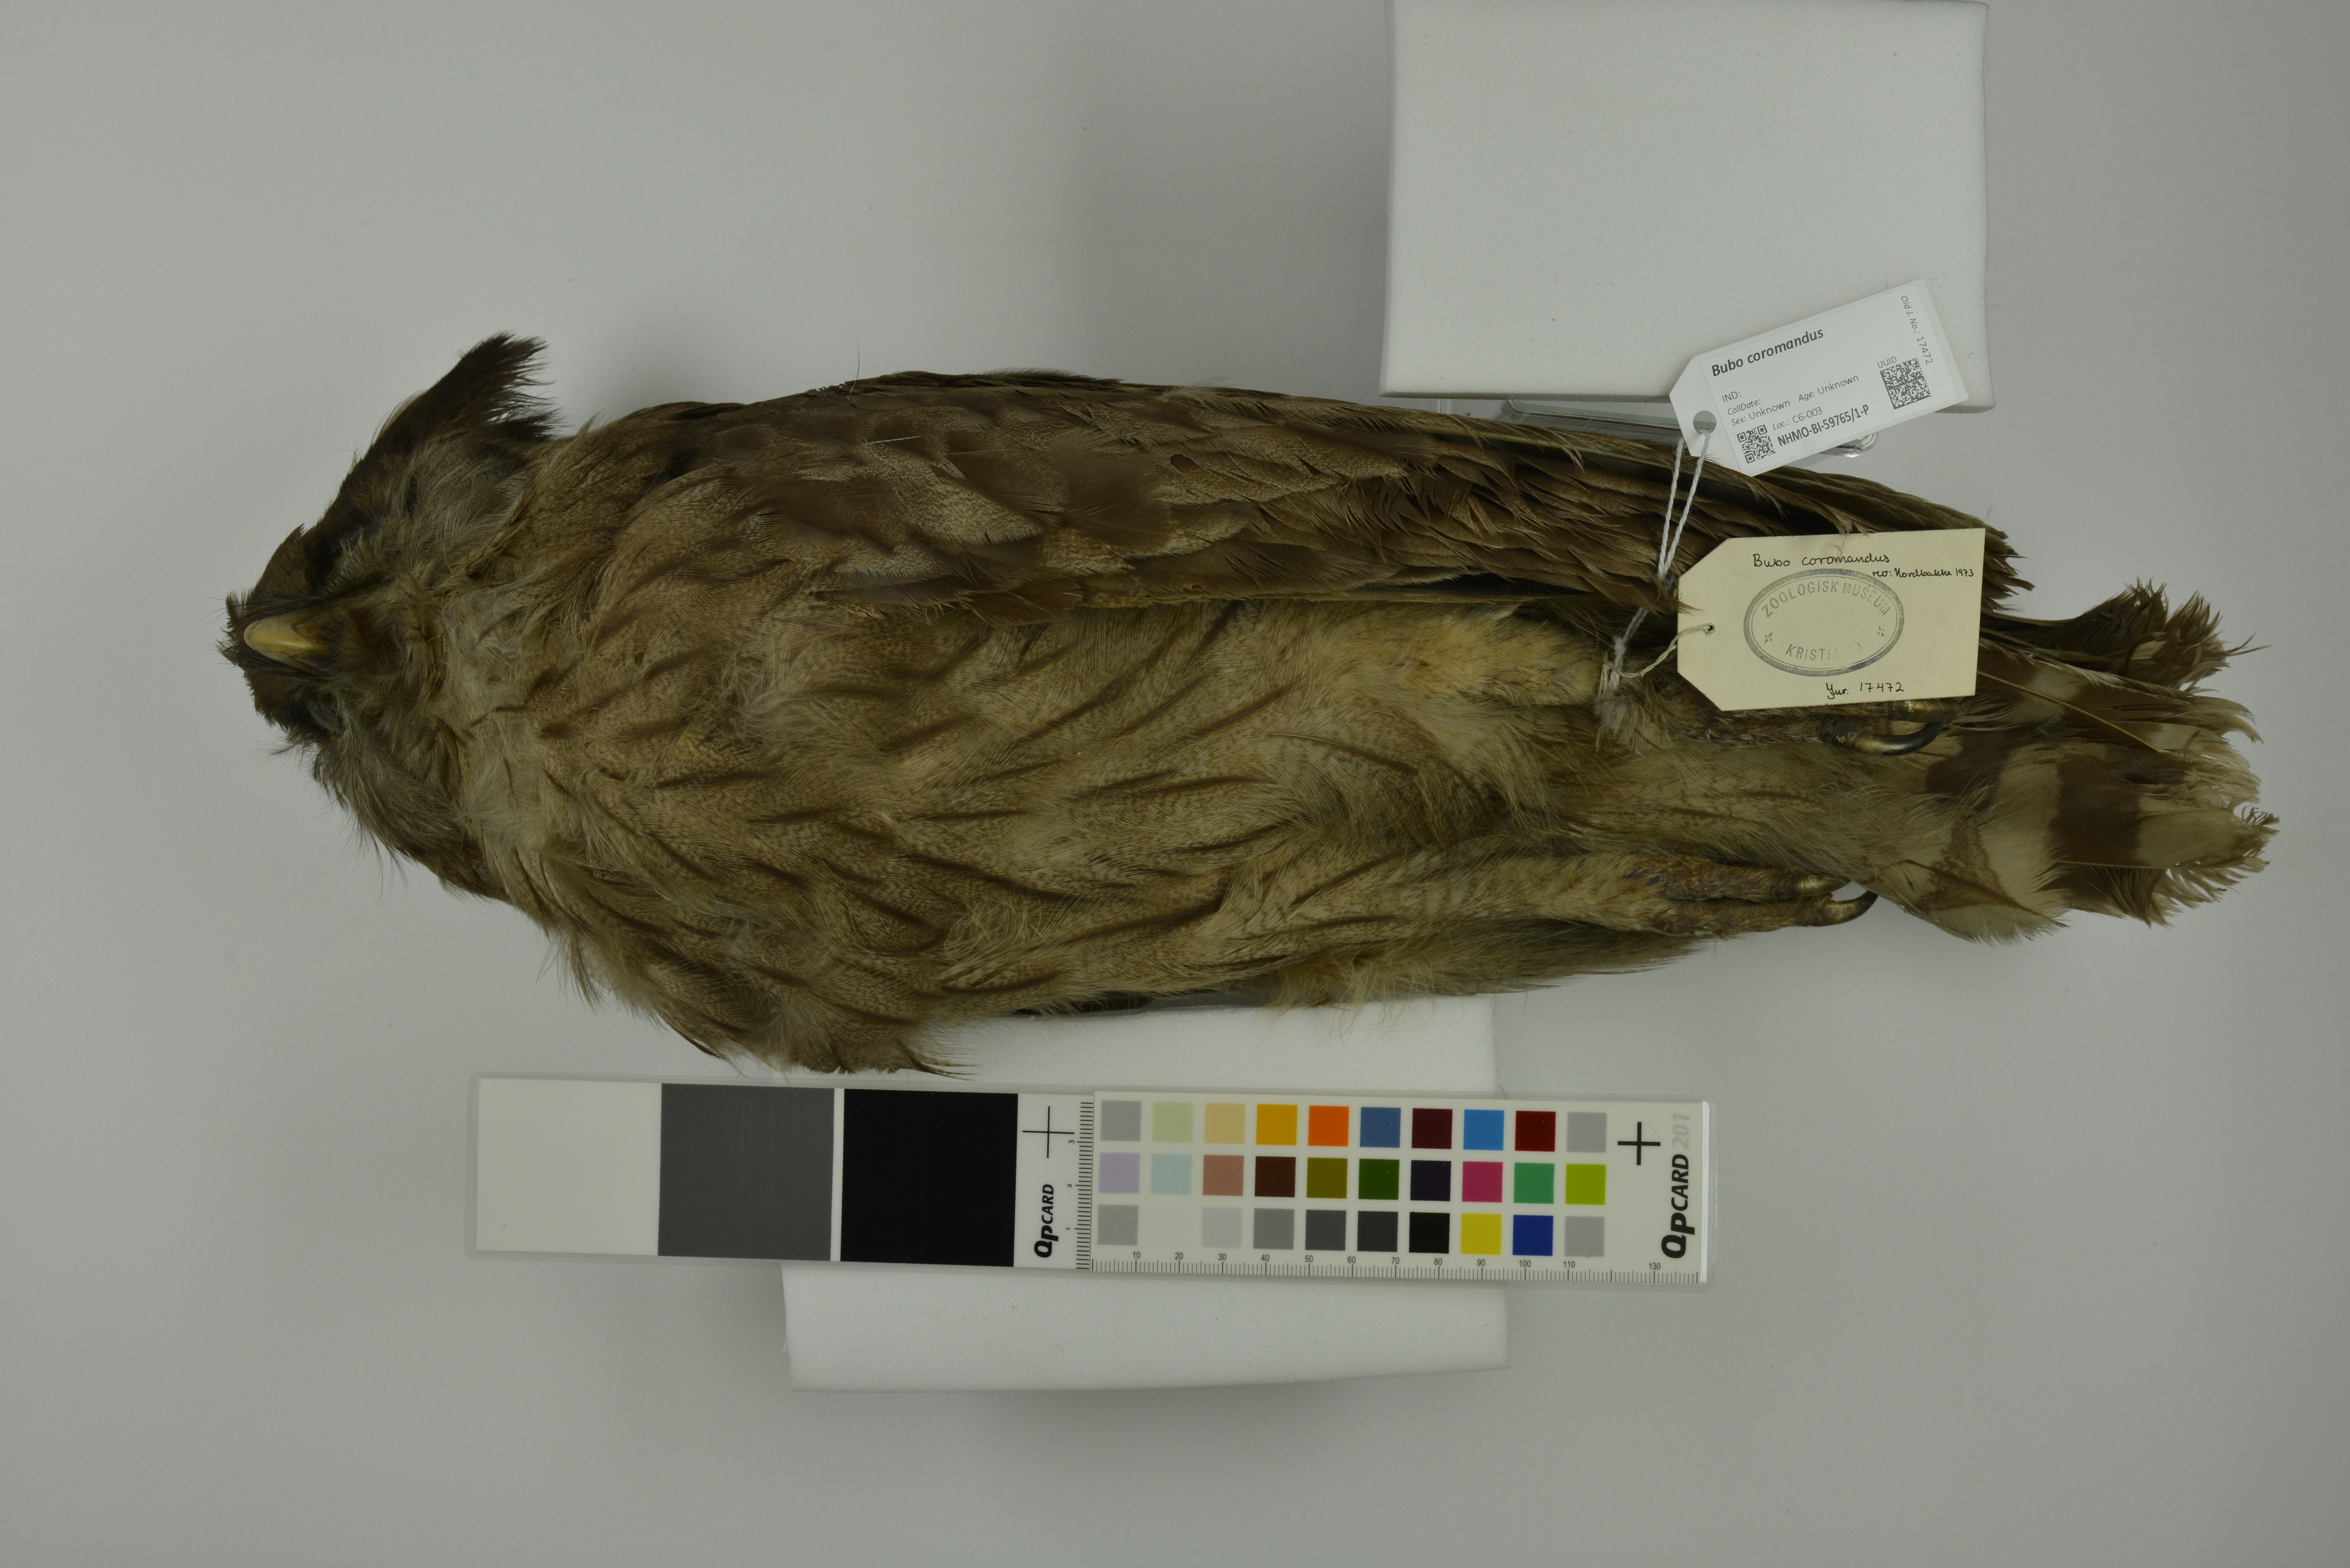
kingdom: Animalia
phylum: Chordata
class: Aves
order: Strigiformes
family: Strigidae
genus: Bubo
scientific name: Bubo coromandus
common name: Dusky eagle-owl
